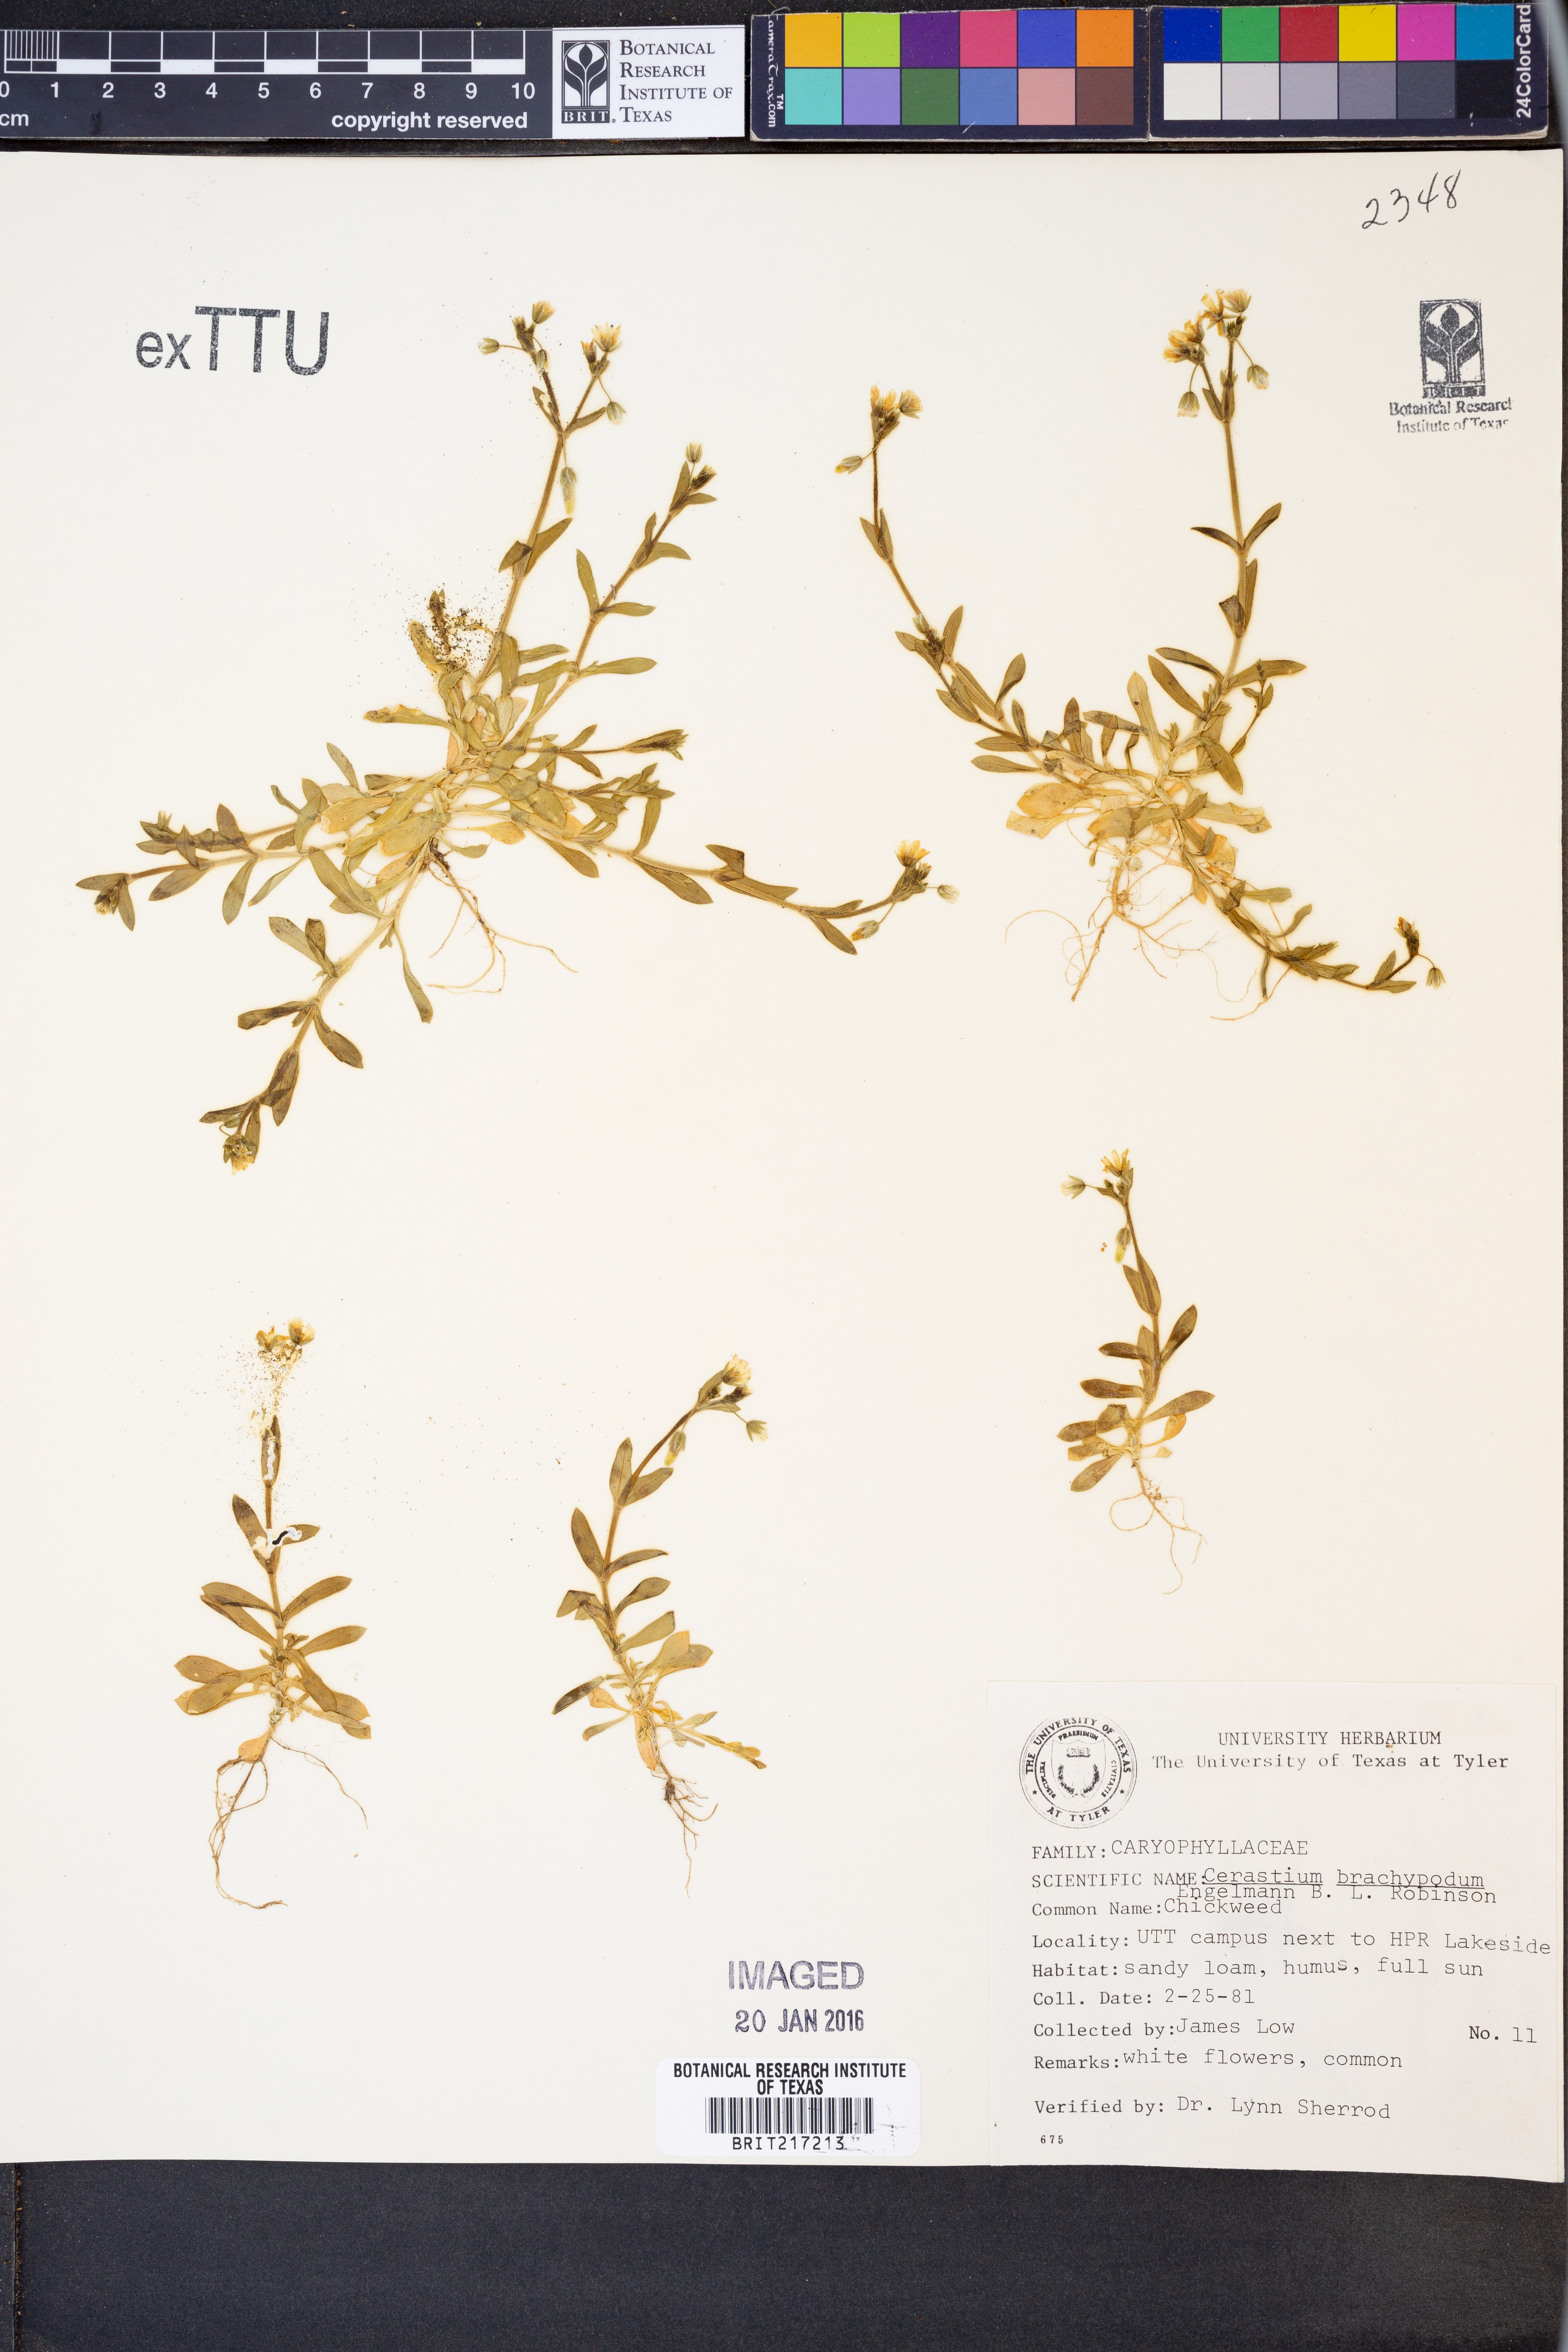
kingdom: Plantae
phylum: Tracheophyta
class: Magnoliopsida
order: Caryophyllales
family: Caryophyllaceae
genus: Cerastium
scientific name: Cerastium brachypodum
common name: Short-pedicelled nodding chickweed
